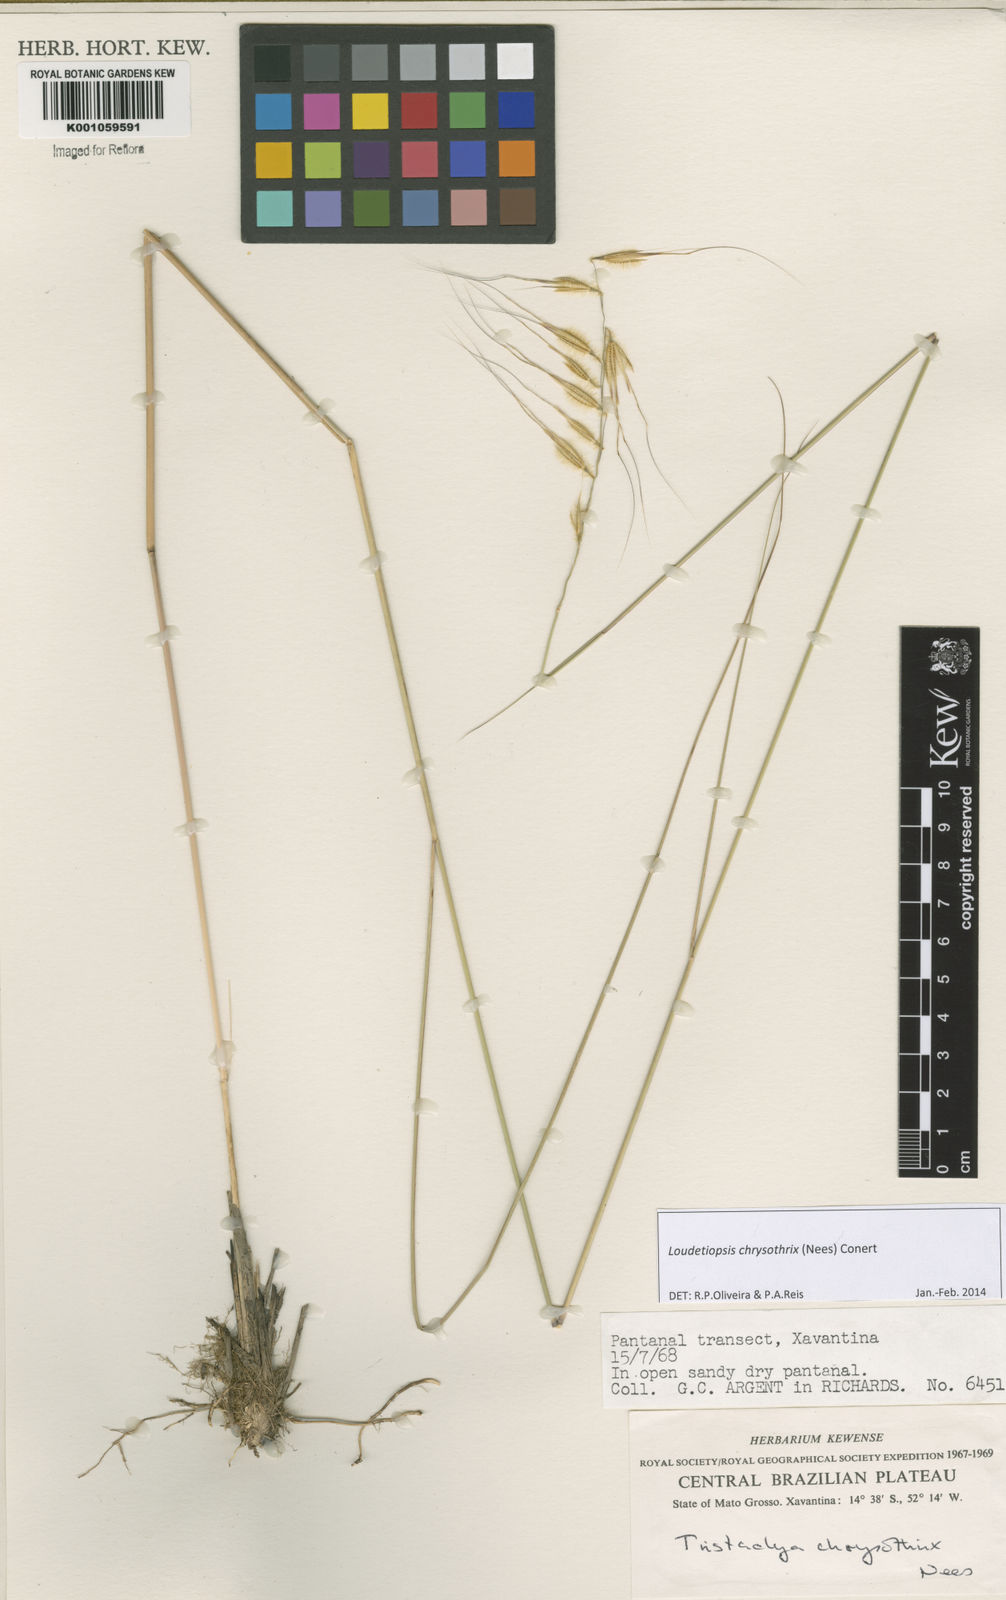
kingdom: Plantae
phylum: Tracheophyta
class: Liliopsida
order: Poales
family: Poaceae
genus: Loudetiopsis
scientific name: Loudetiopsis chrysothrix
